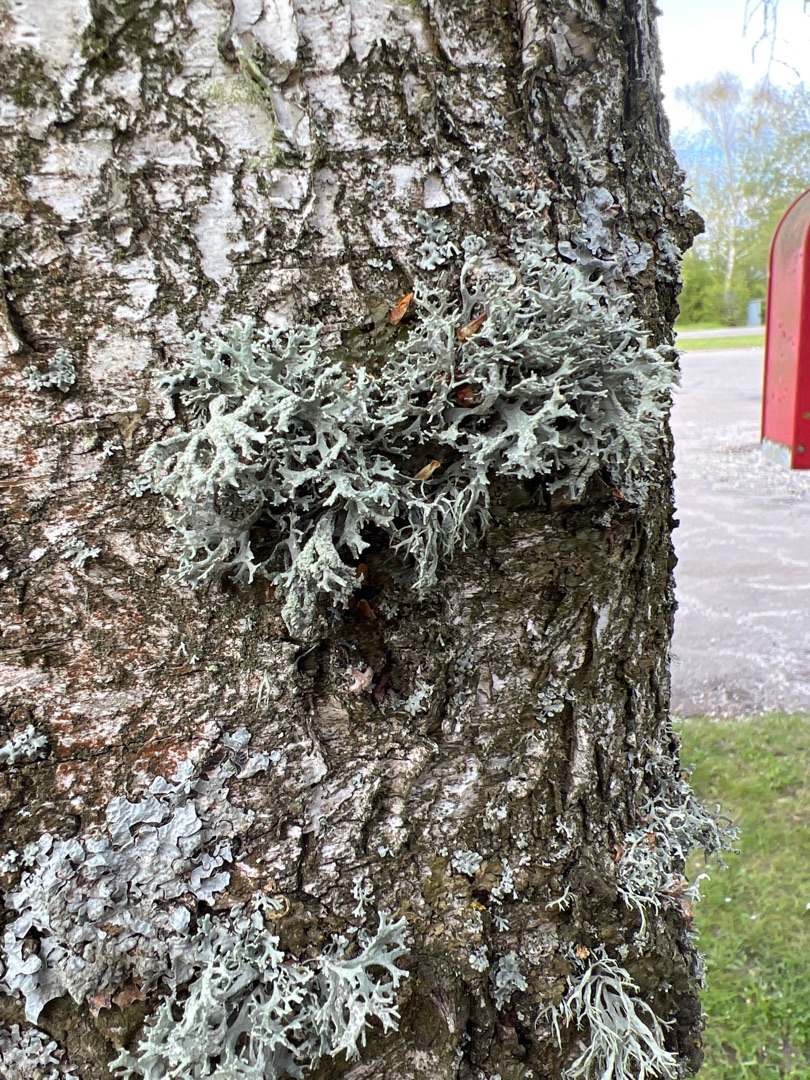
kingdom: Fungi
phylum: Ascomycota
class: Lecanoromycetes
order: Lecanorales
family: Parmeliaceae
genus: Evernia
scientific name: Evernia prunastri
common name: Almindelig slåenlav
